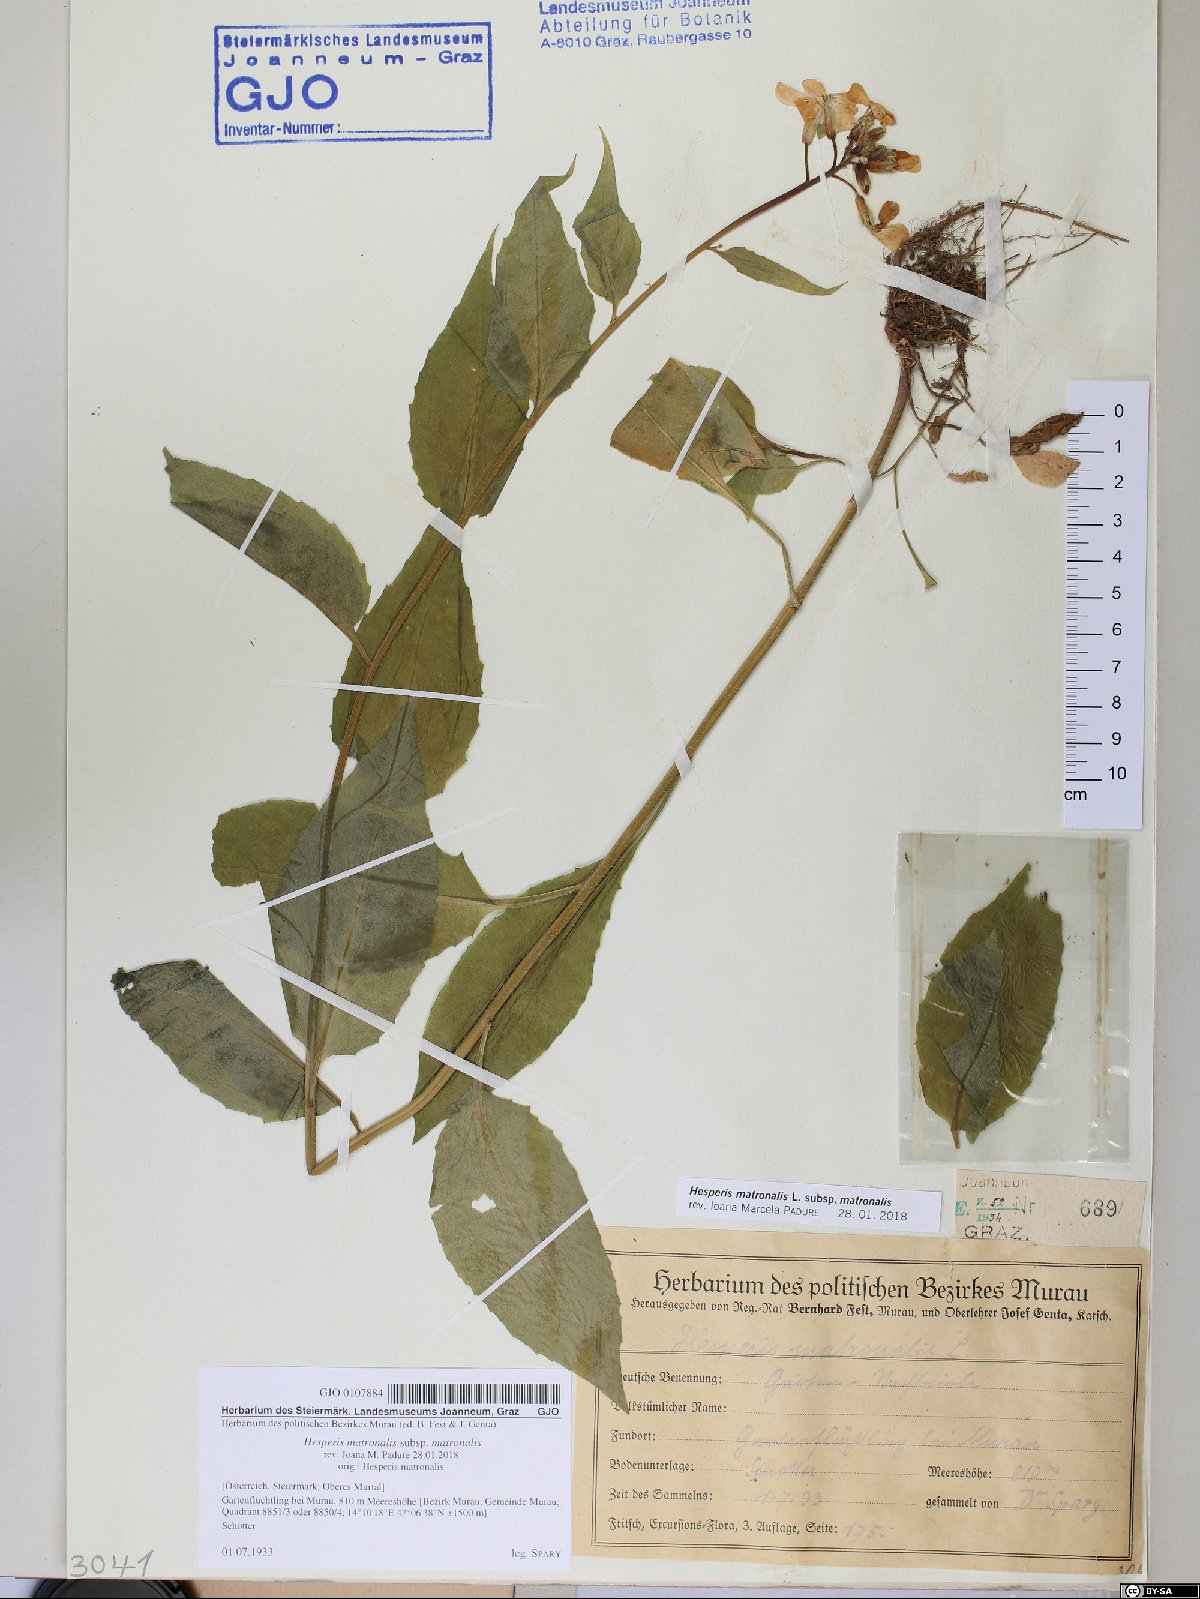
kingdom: Plantae
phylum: Tracheophyta
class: Magnoliopsida
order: Brassicales
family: Brassicaceae
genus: Hesperis
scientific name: Hesperis matronalis
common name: Dame's-violet
